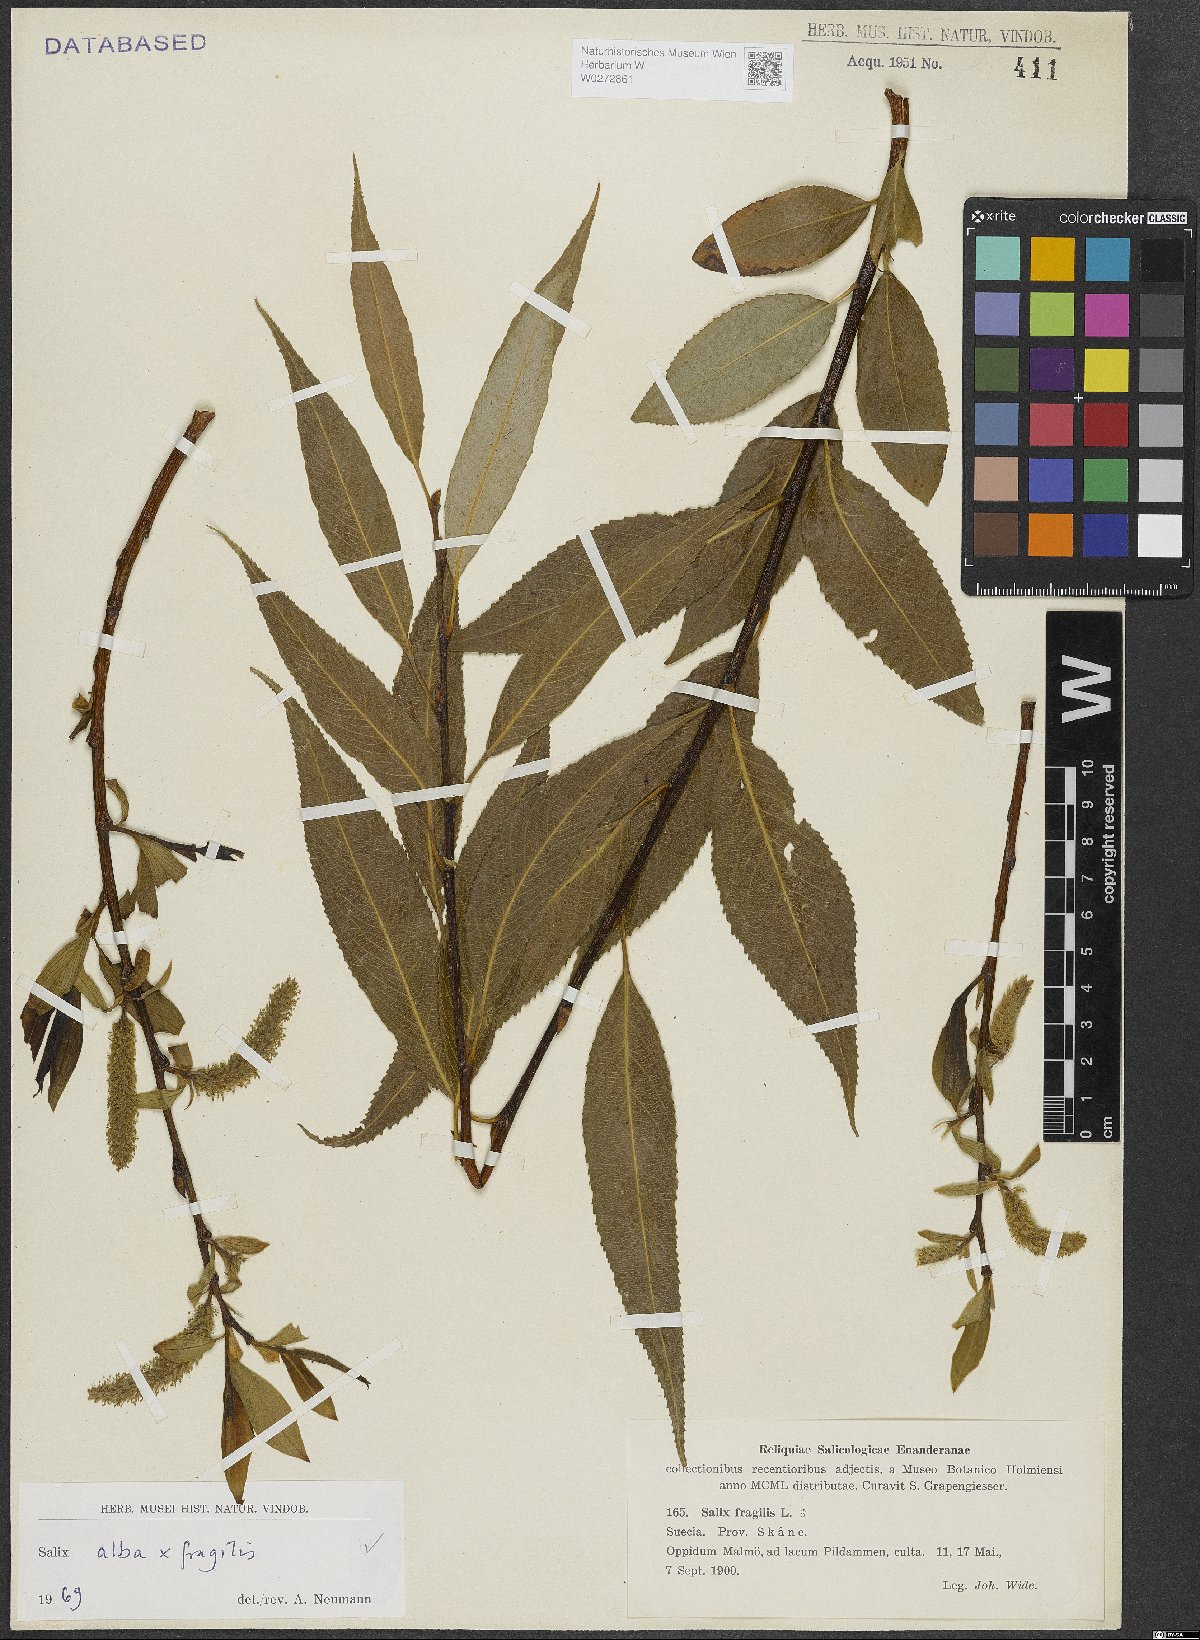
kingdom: Plantae
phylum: Tracheophyta
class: Magnoliopsida
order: Malpighiales
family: Salicaceae
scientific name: Salicaceae
